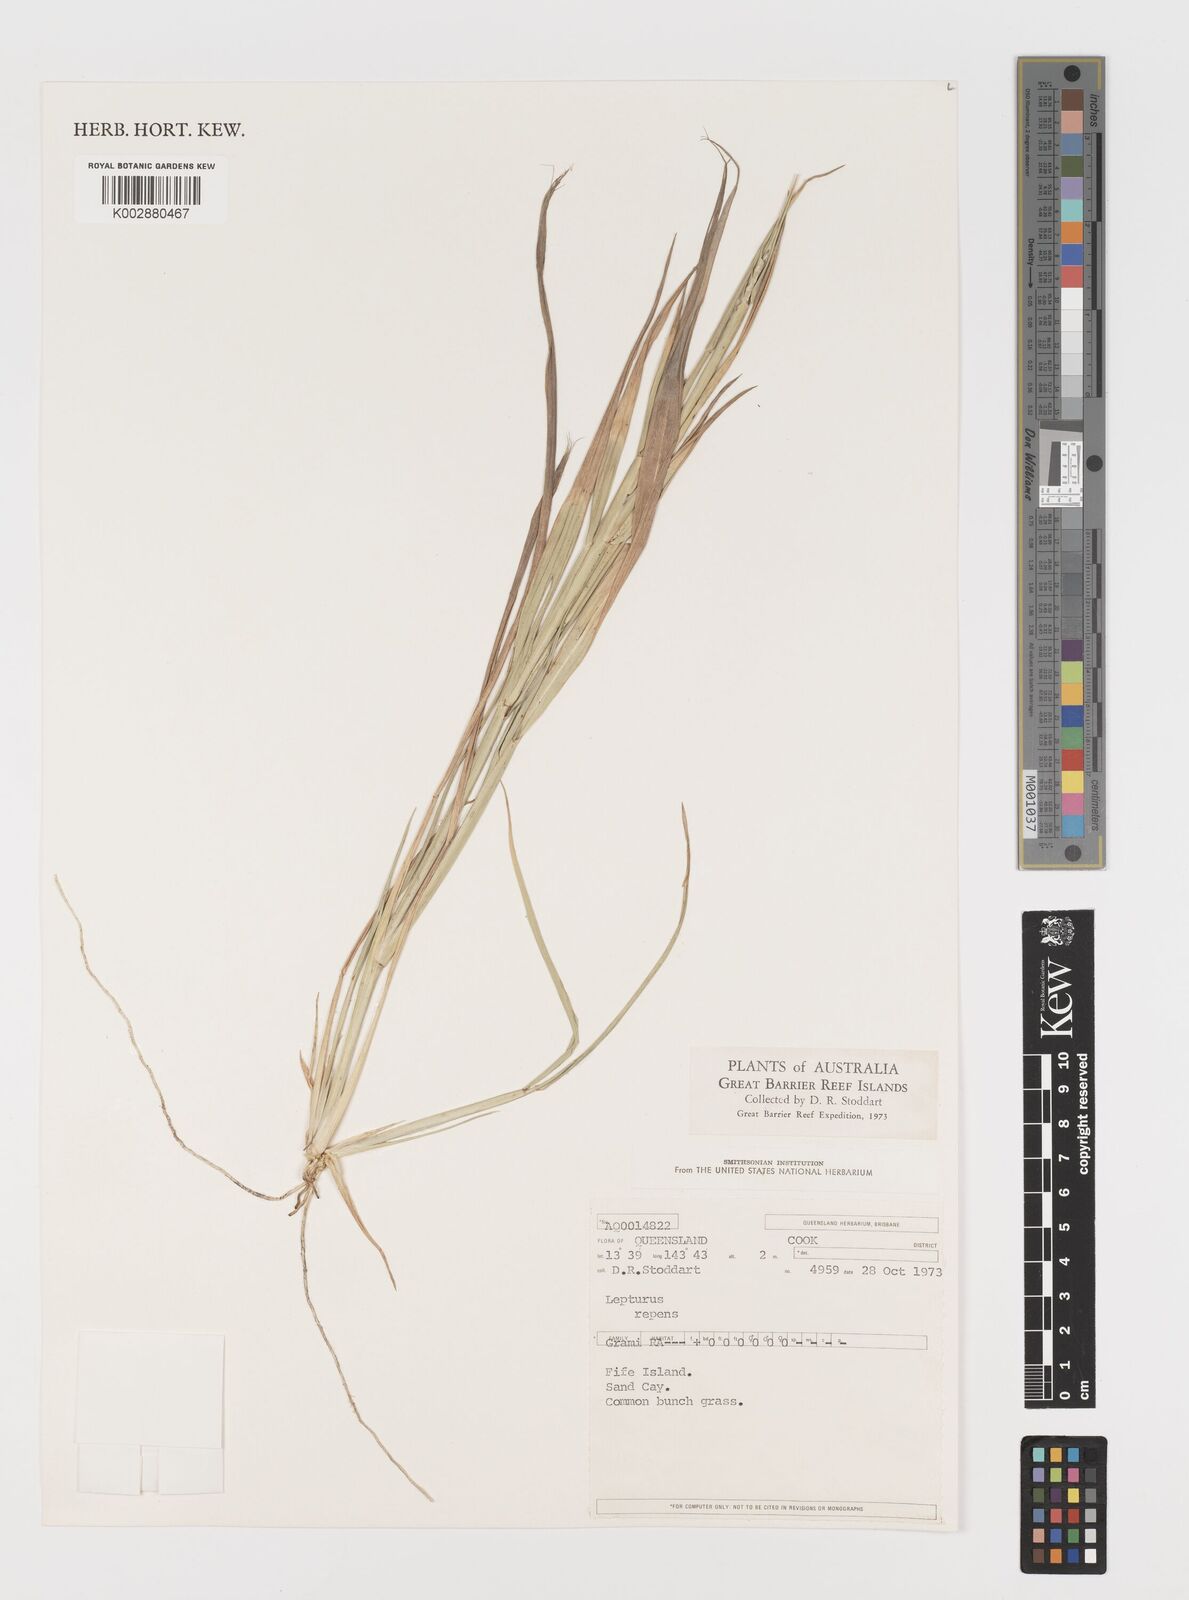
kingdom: Plantae
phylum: Tracheophyta
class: Liliopsida
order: Poales
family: Poaceae
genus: Lepturus
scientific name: Lepturus repens
